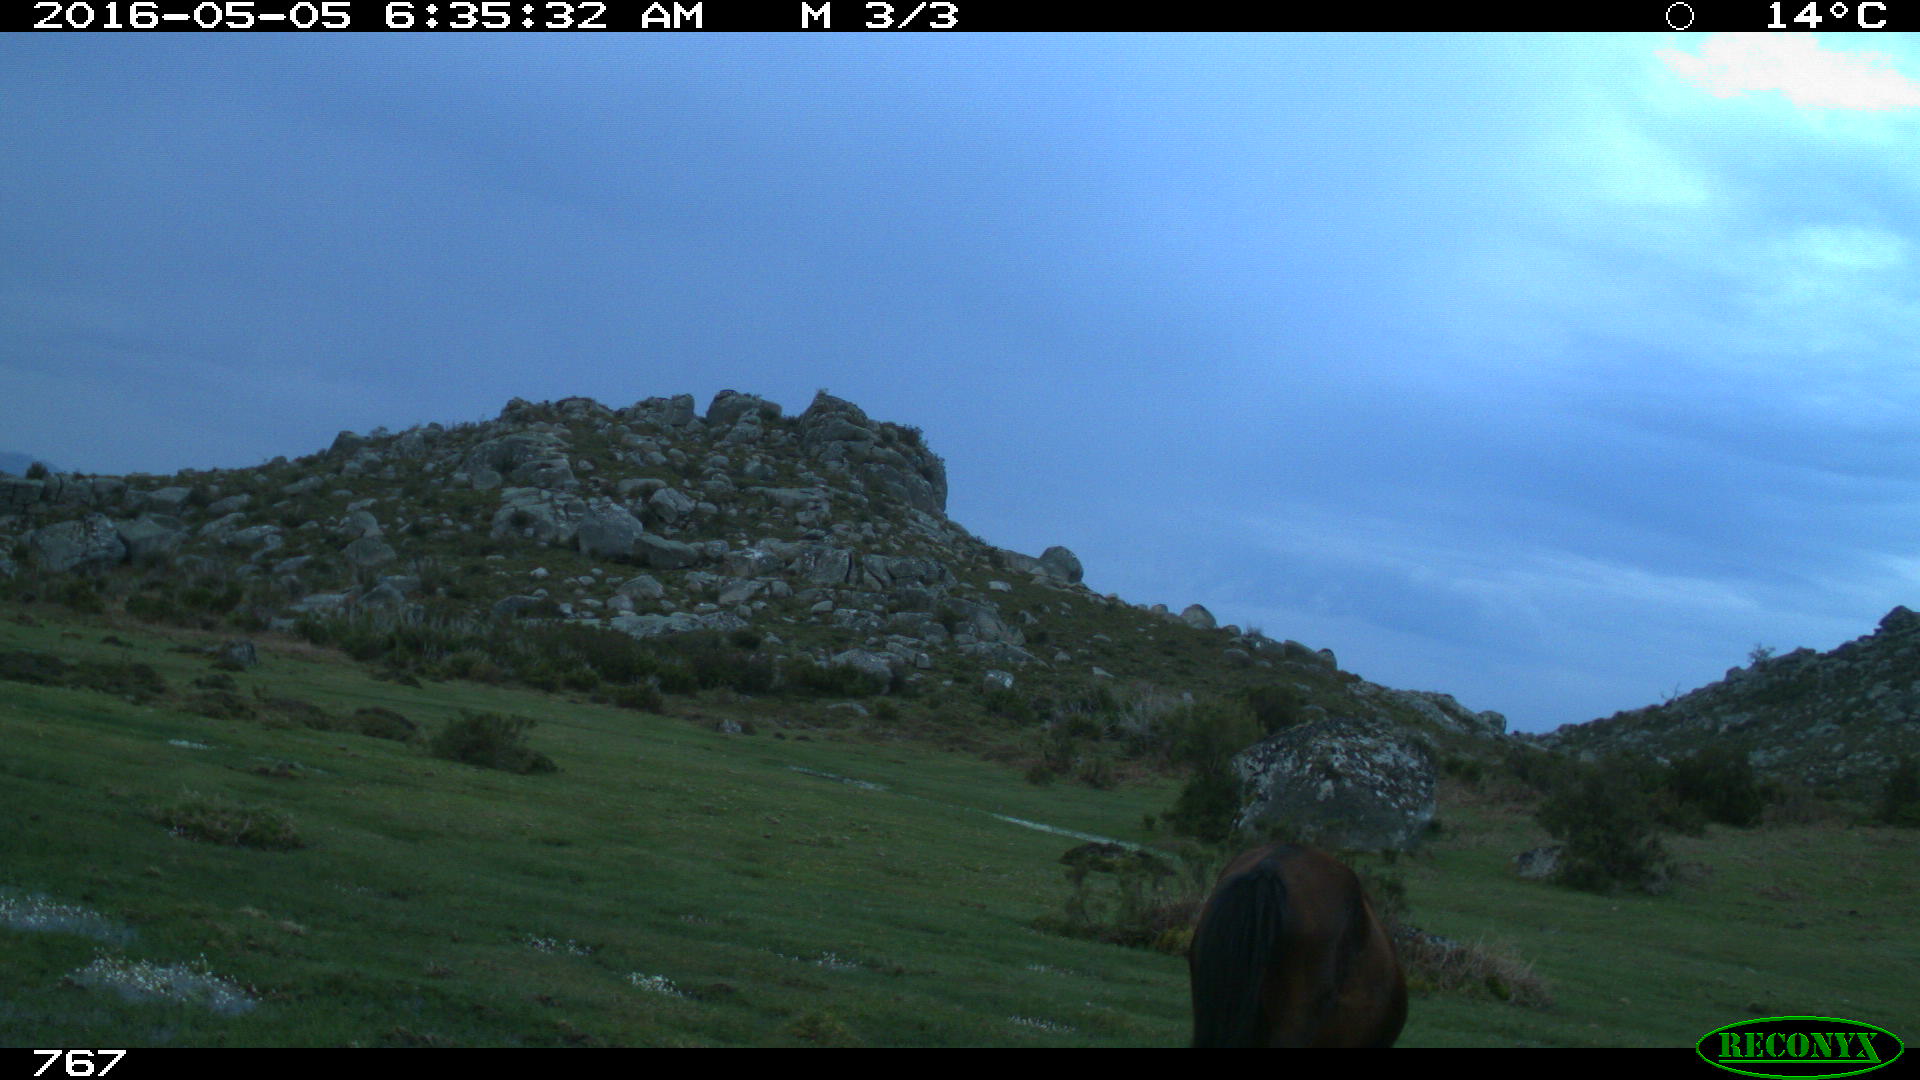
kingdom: Animalia
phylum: Chordata
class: Mammalia
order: Perissodactyla
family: Equidae
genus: Equus
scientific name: Equus caballus
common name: Horse
